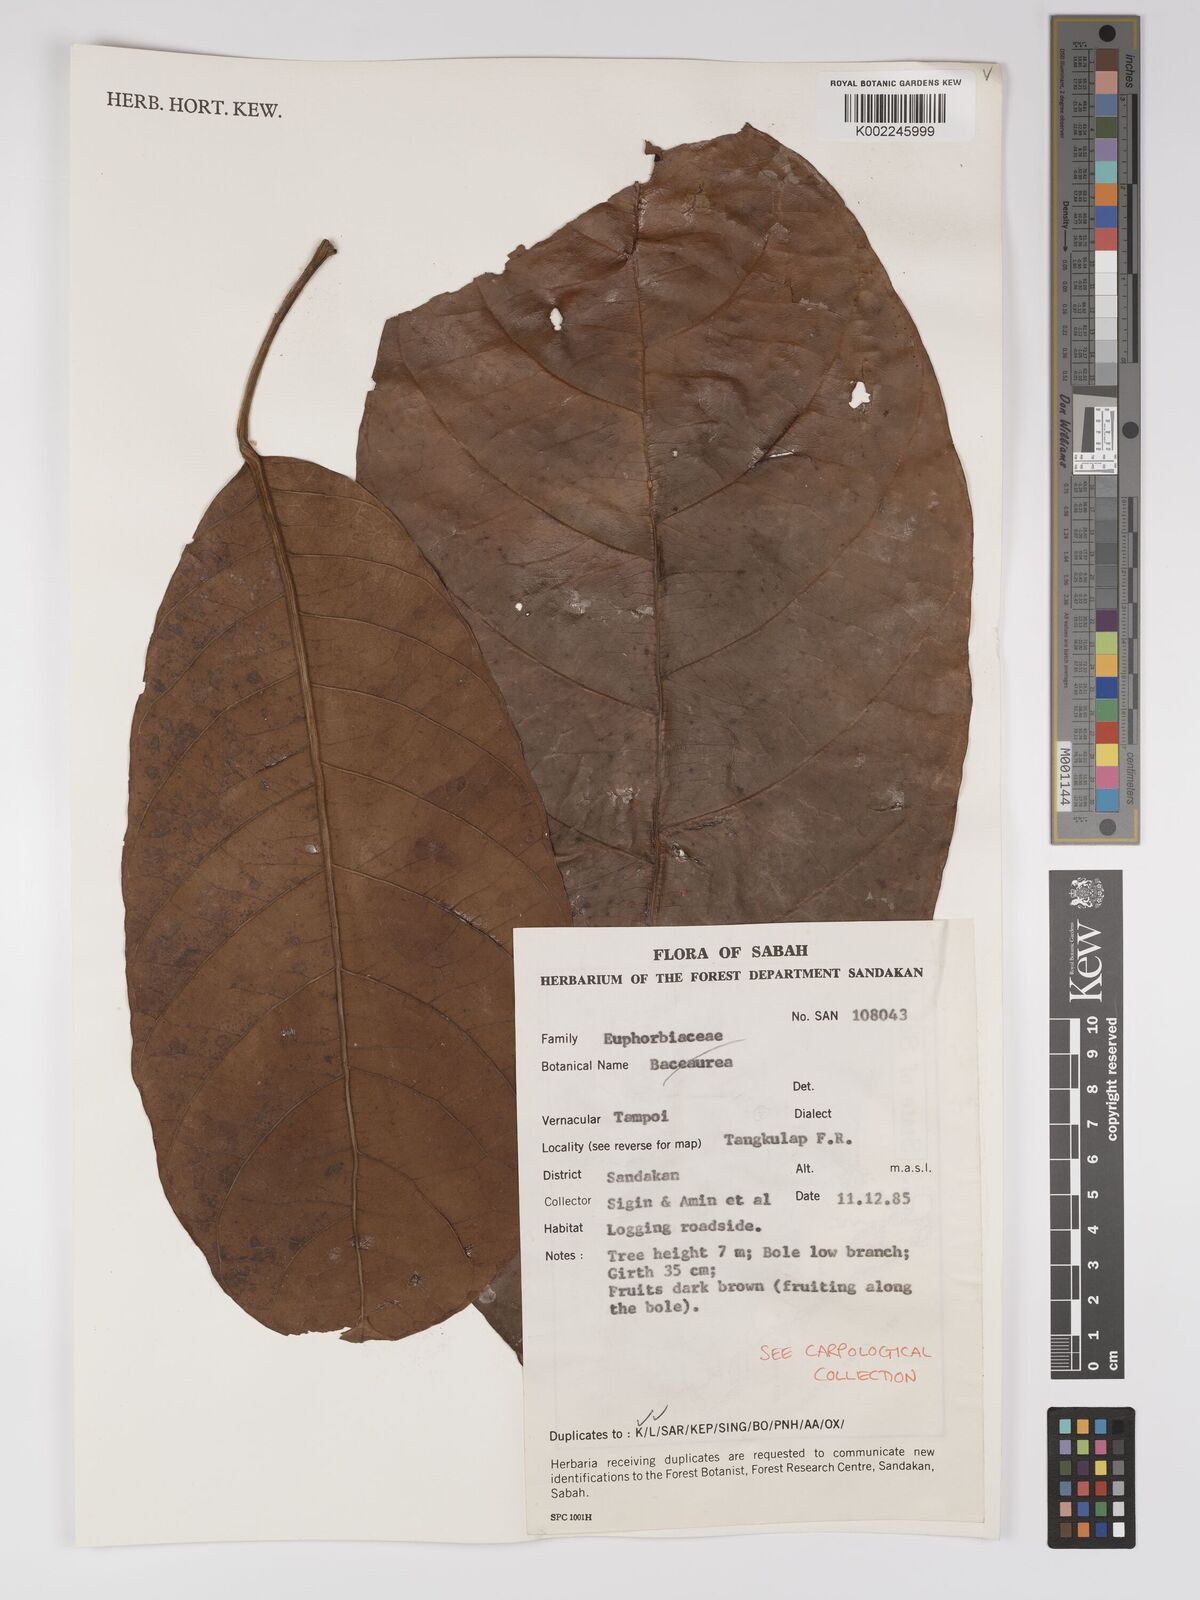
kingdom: Plantae
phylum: Tracheophyta
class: Magnoliopsida
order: Malpighiales
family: Euphorbiaceae
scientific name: Euphorbiaceae
